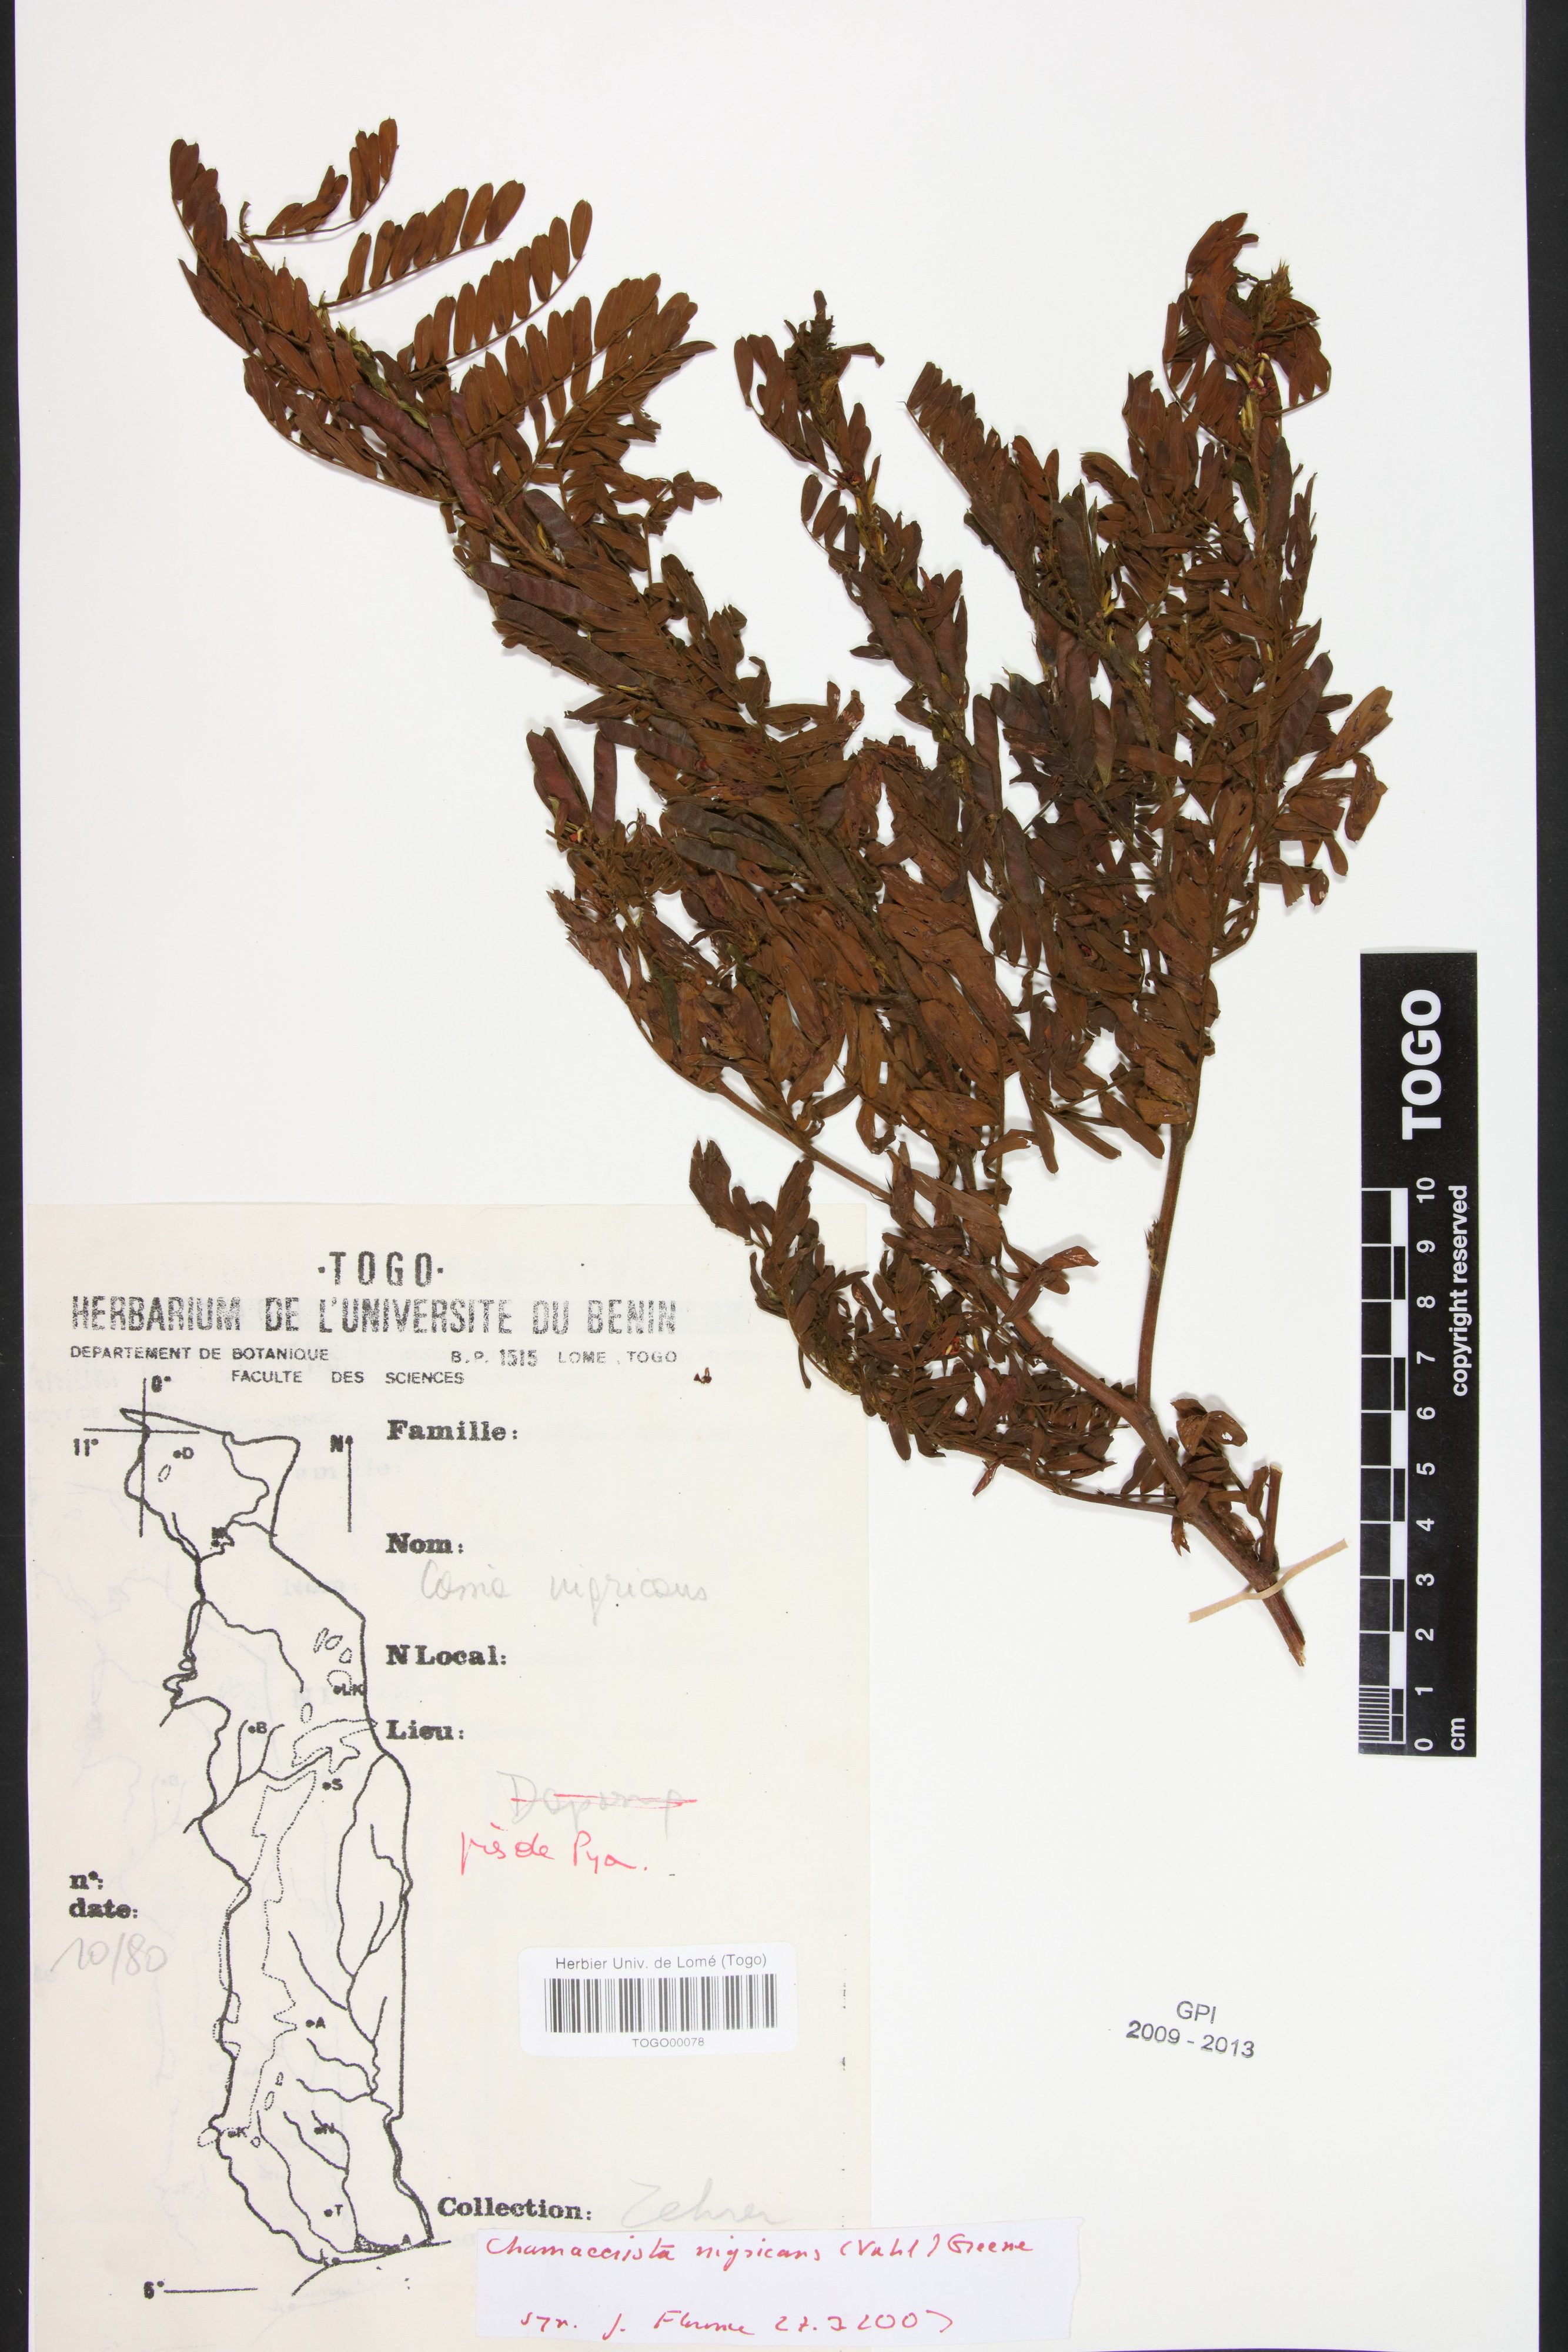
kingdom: Plantae
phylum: Tracheophyta
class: Magnoliopsida
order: Fabales
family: Fabaceae
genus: Chamaecrista
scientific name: Chamaecrista nigricans
